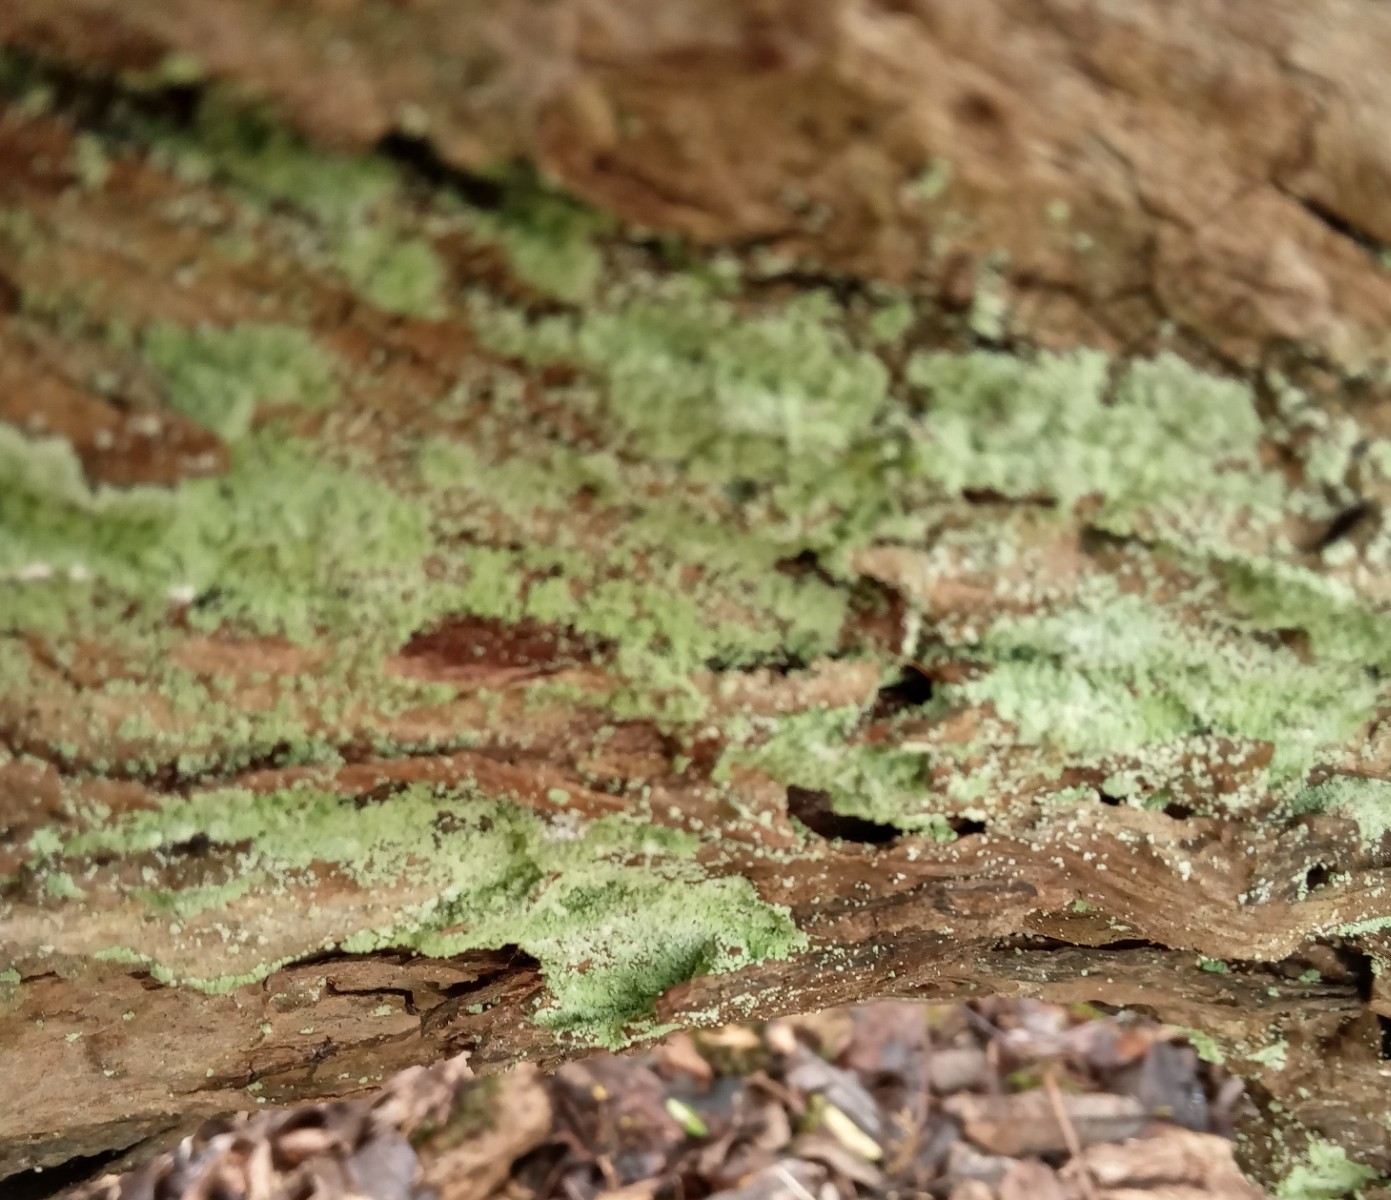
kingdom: Fungi
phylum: Ascomycota
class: Lecanoromycetes
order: Lecanorales
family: Stereocaulaceae
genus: Lepraria
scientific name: Lepraria
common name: støvlav
